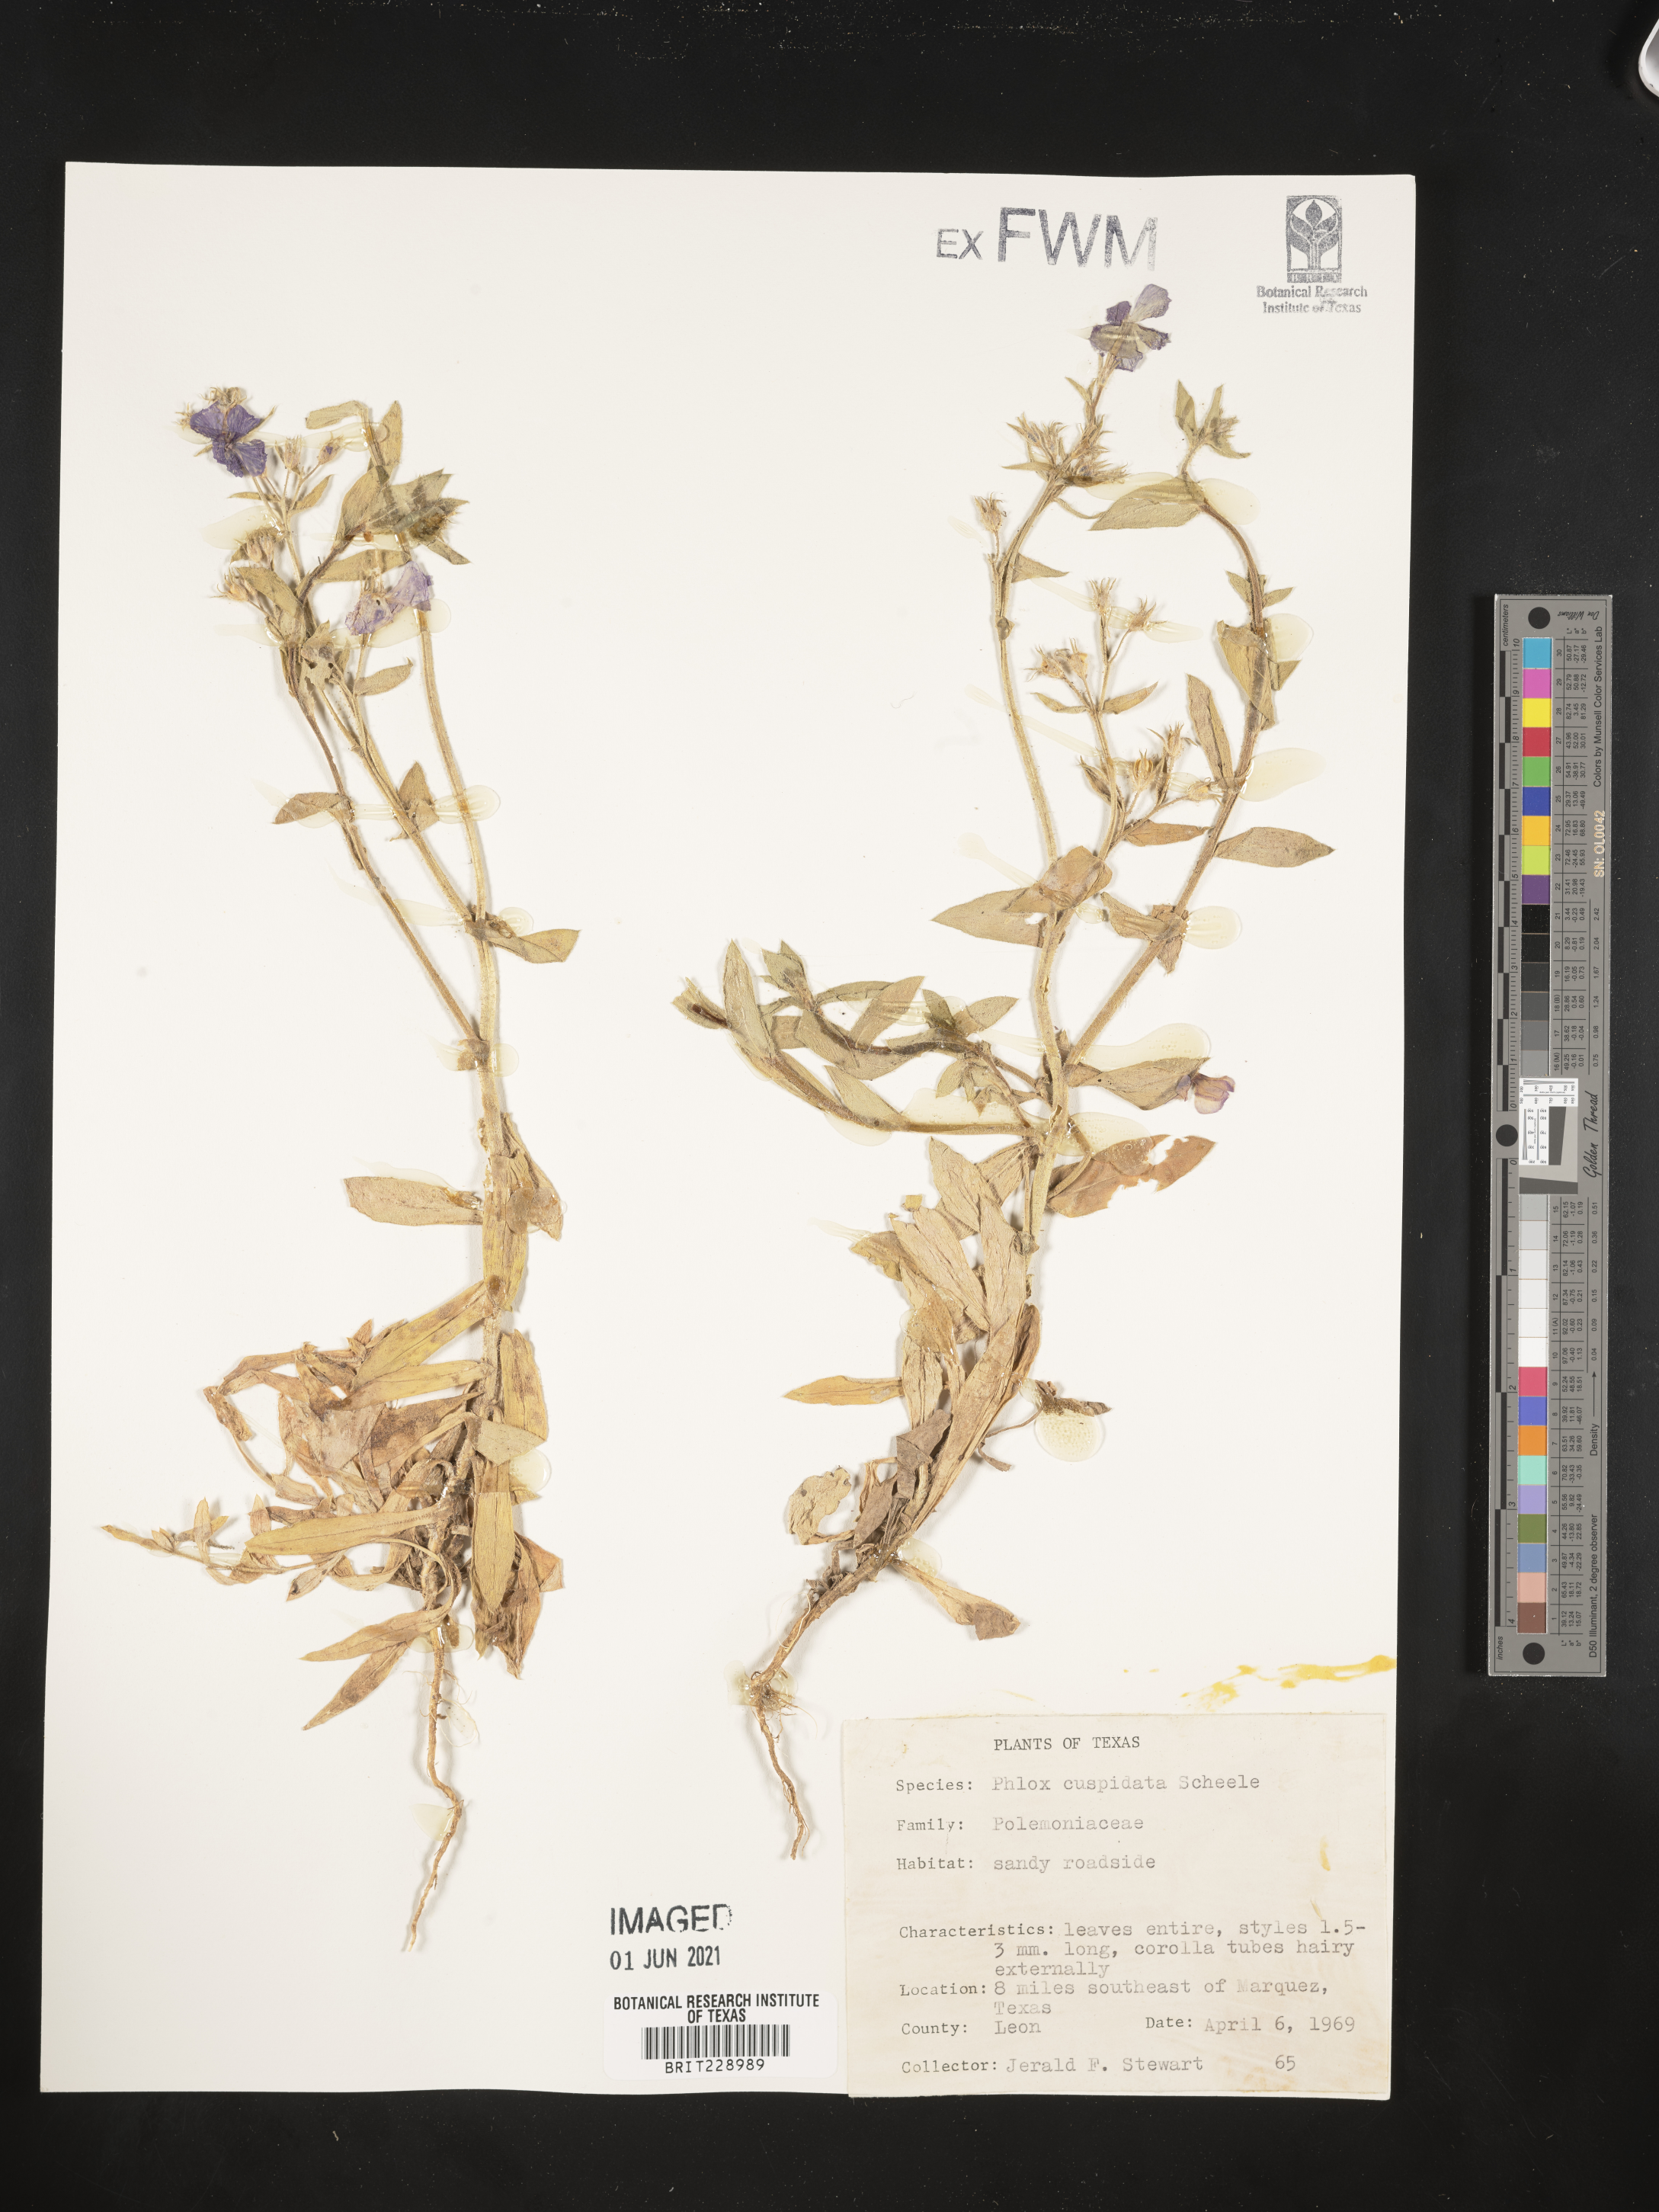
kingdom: Plantae
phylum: Tracheophyta
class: Magnoliopsida
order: Ericales
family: Polemoniaceae
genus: Phlox
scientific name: Phlox cuspidata
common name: Pointed phlox
